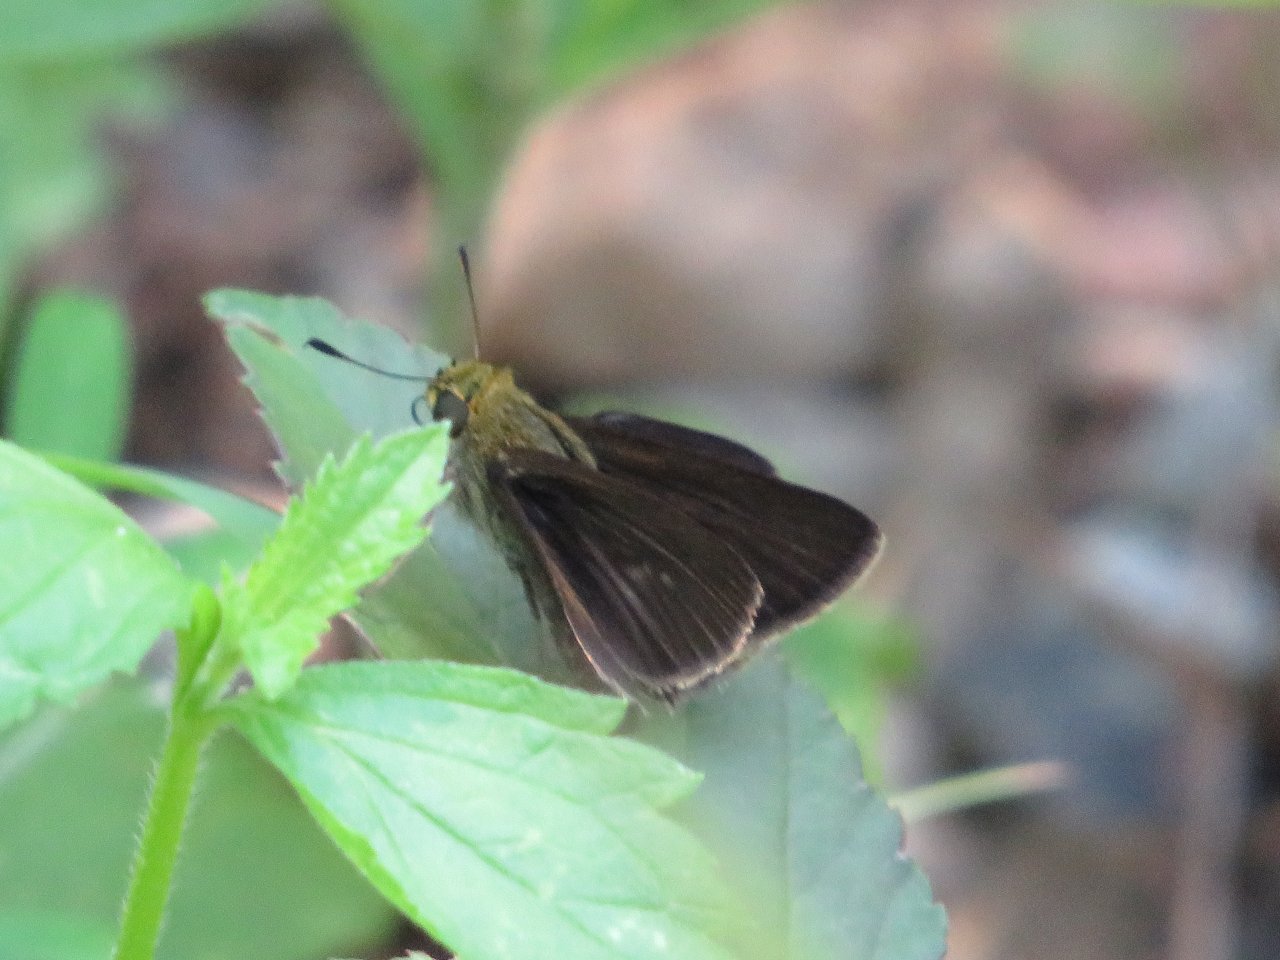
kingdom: Animalia
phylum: Arthropoda
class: Insecta
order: Lepidoptera
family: Hesperiidae
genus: Euphyes
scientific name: Euphyes vestris
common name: Dun Skipper
